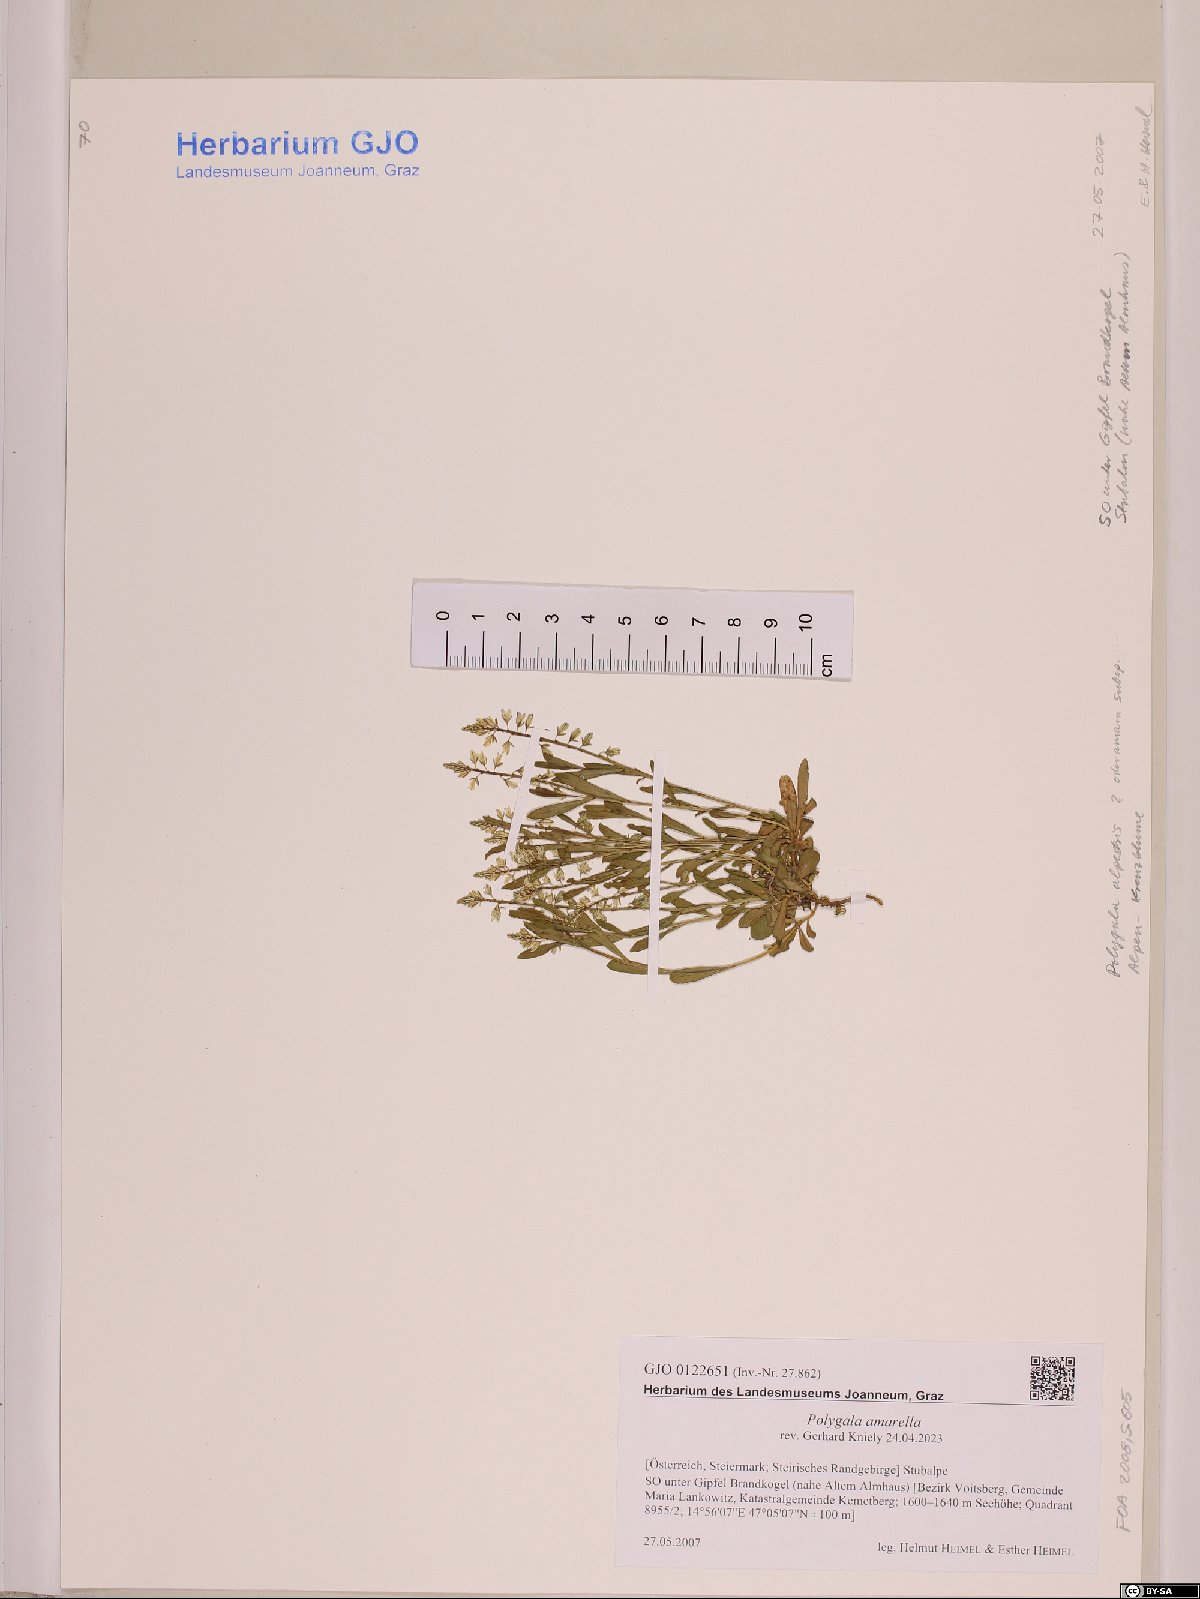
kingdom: Plantae
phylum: Tracheophyta
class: Magnoliopsida
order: Fabales
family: Polygalaceae
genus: Polygala
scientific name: Polygala amarella
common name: Dwarf milkwort
